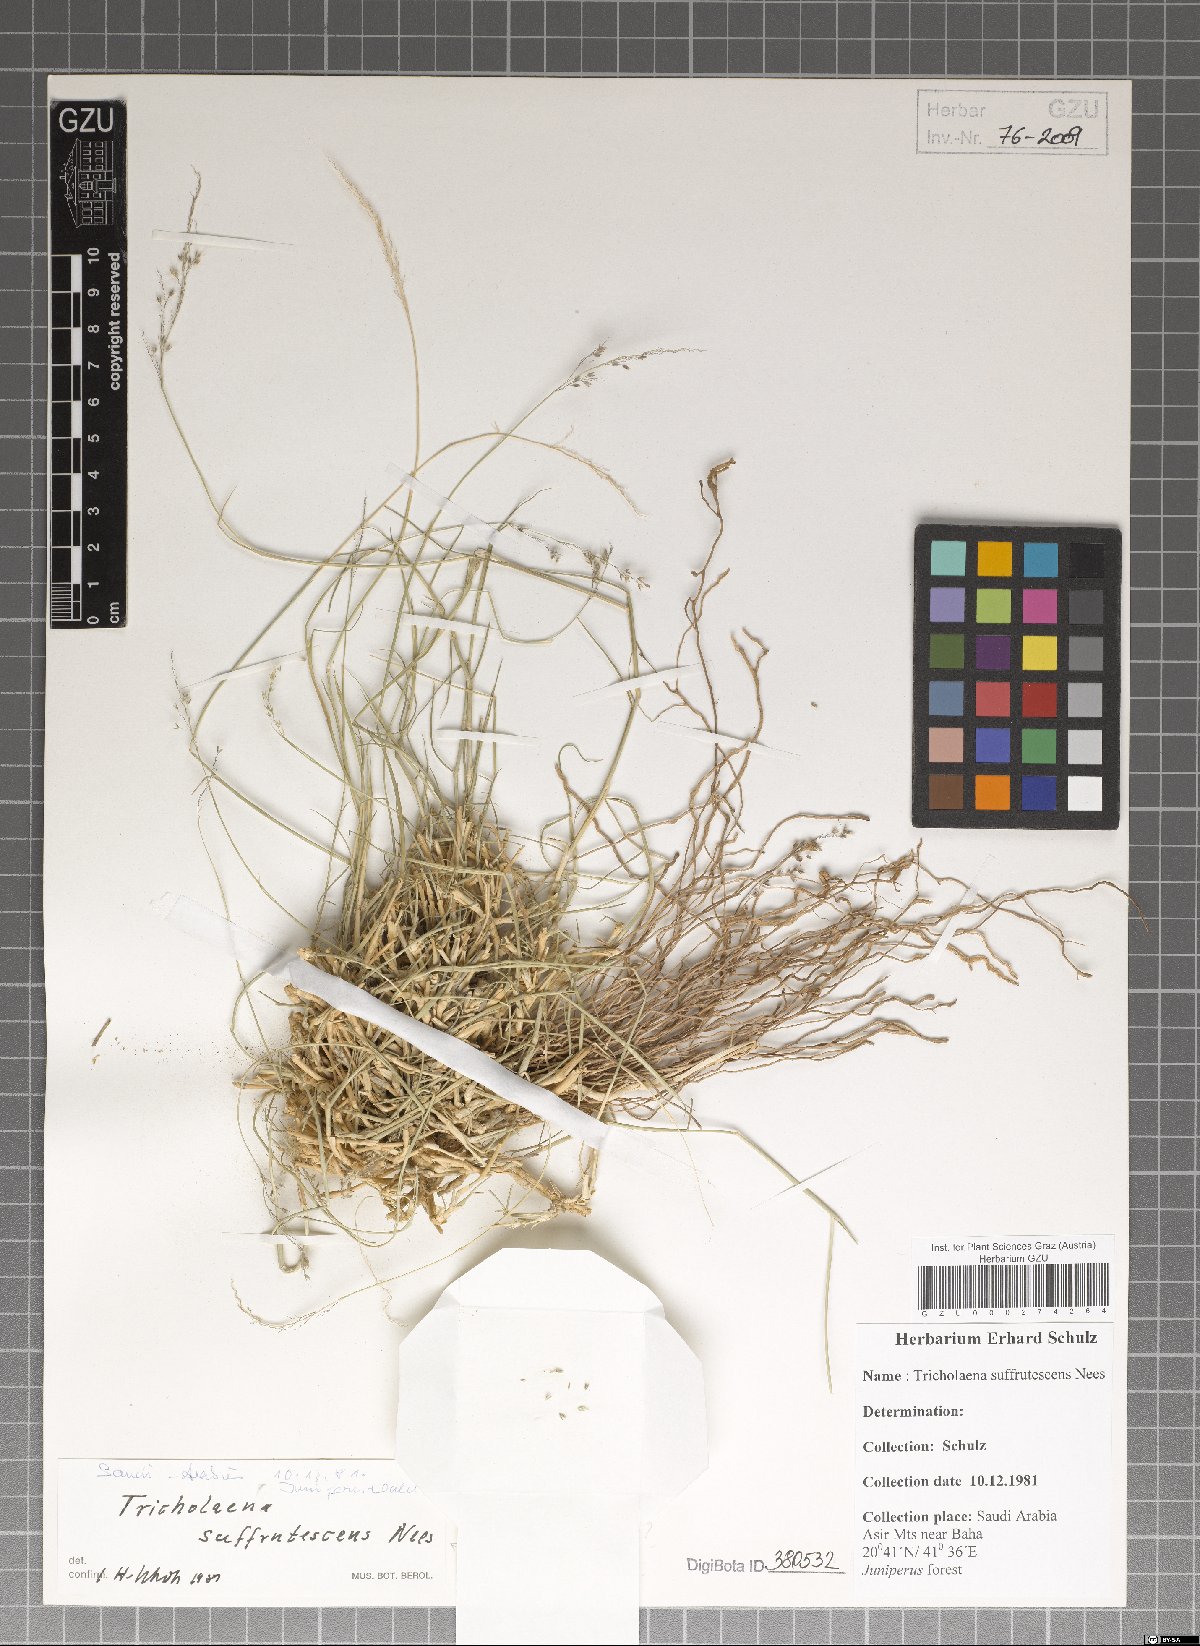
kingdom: Plantae
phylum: Tracheophyta
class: Liliopsida
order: Poales
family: Poaceae
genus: Tricholaena
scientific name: Tricholaena
